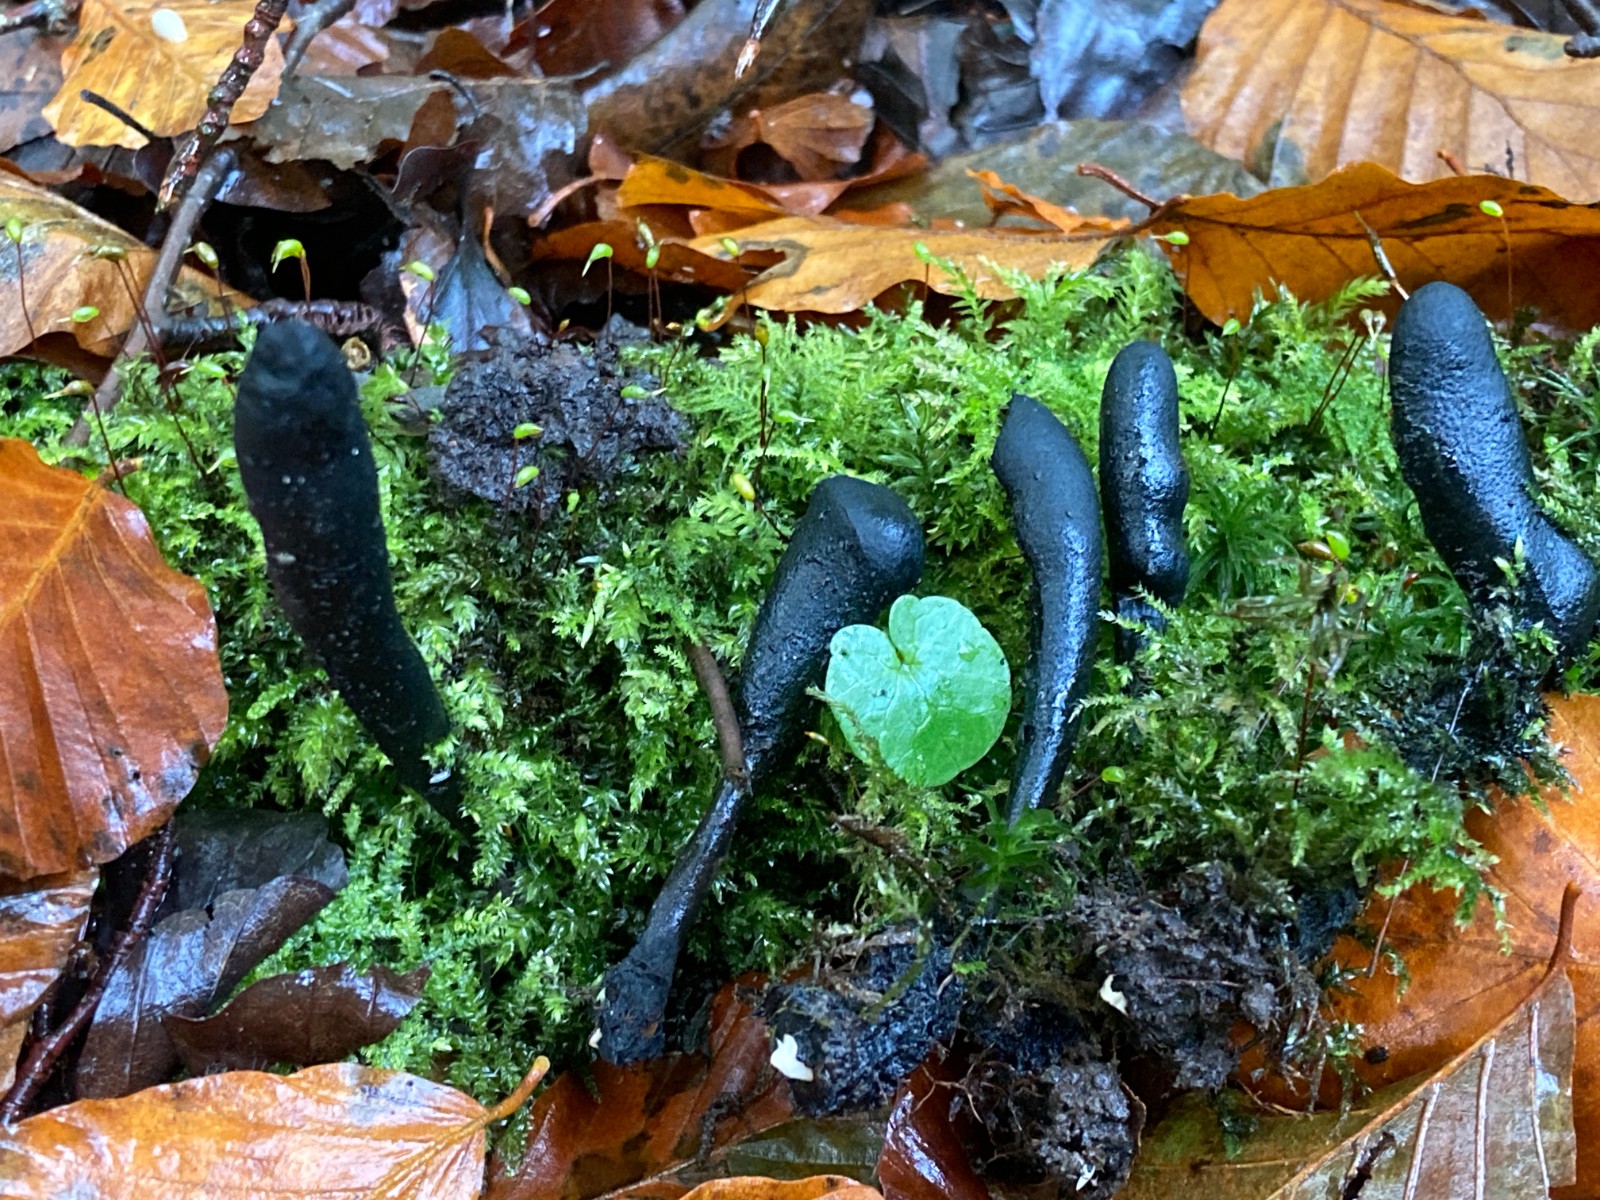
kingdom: Fungi
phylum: Ascomycota
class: Sordariomycetes
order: Xylariales
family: Xylariaceae
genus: Xylaria
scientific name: Xylaria polymorpha
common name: kølle-stødsvamp
